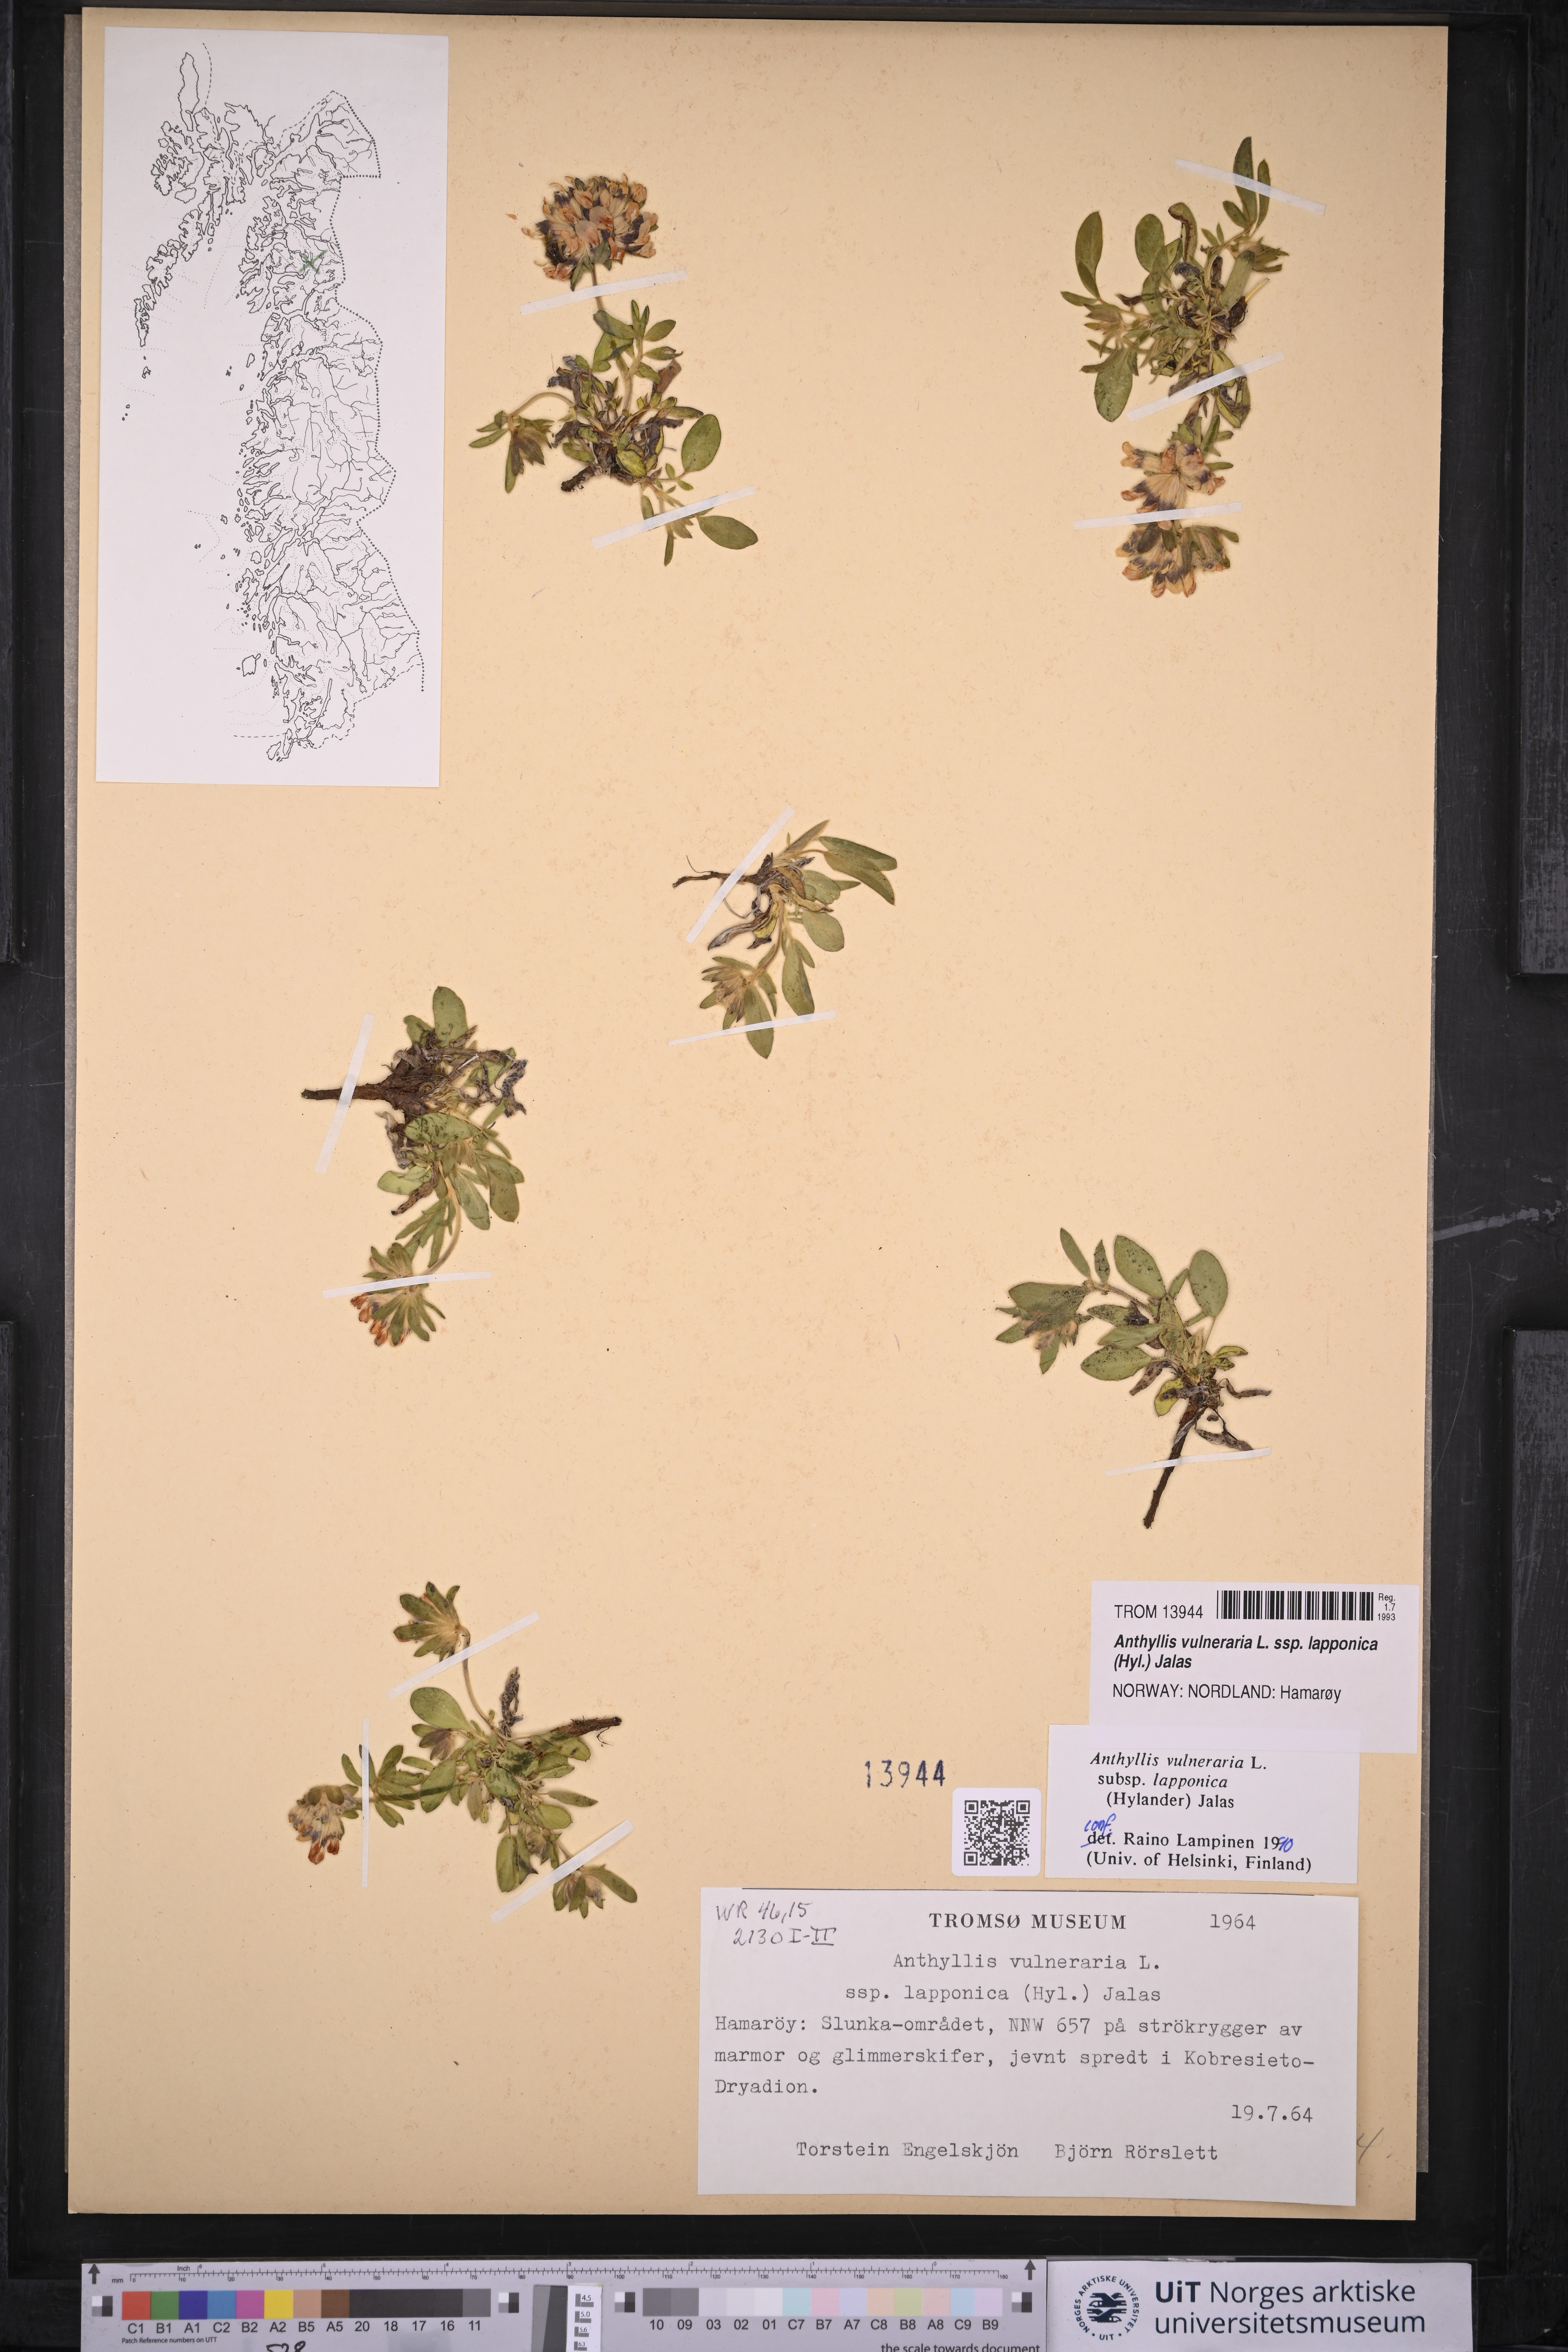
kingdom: Plantae
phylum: Tracheophyta
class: Magnoliopsida
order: Fabales
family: Fabaceae
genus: Anthyllis
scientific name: Anthyllis vulneraria
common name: Kidney vetch
